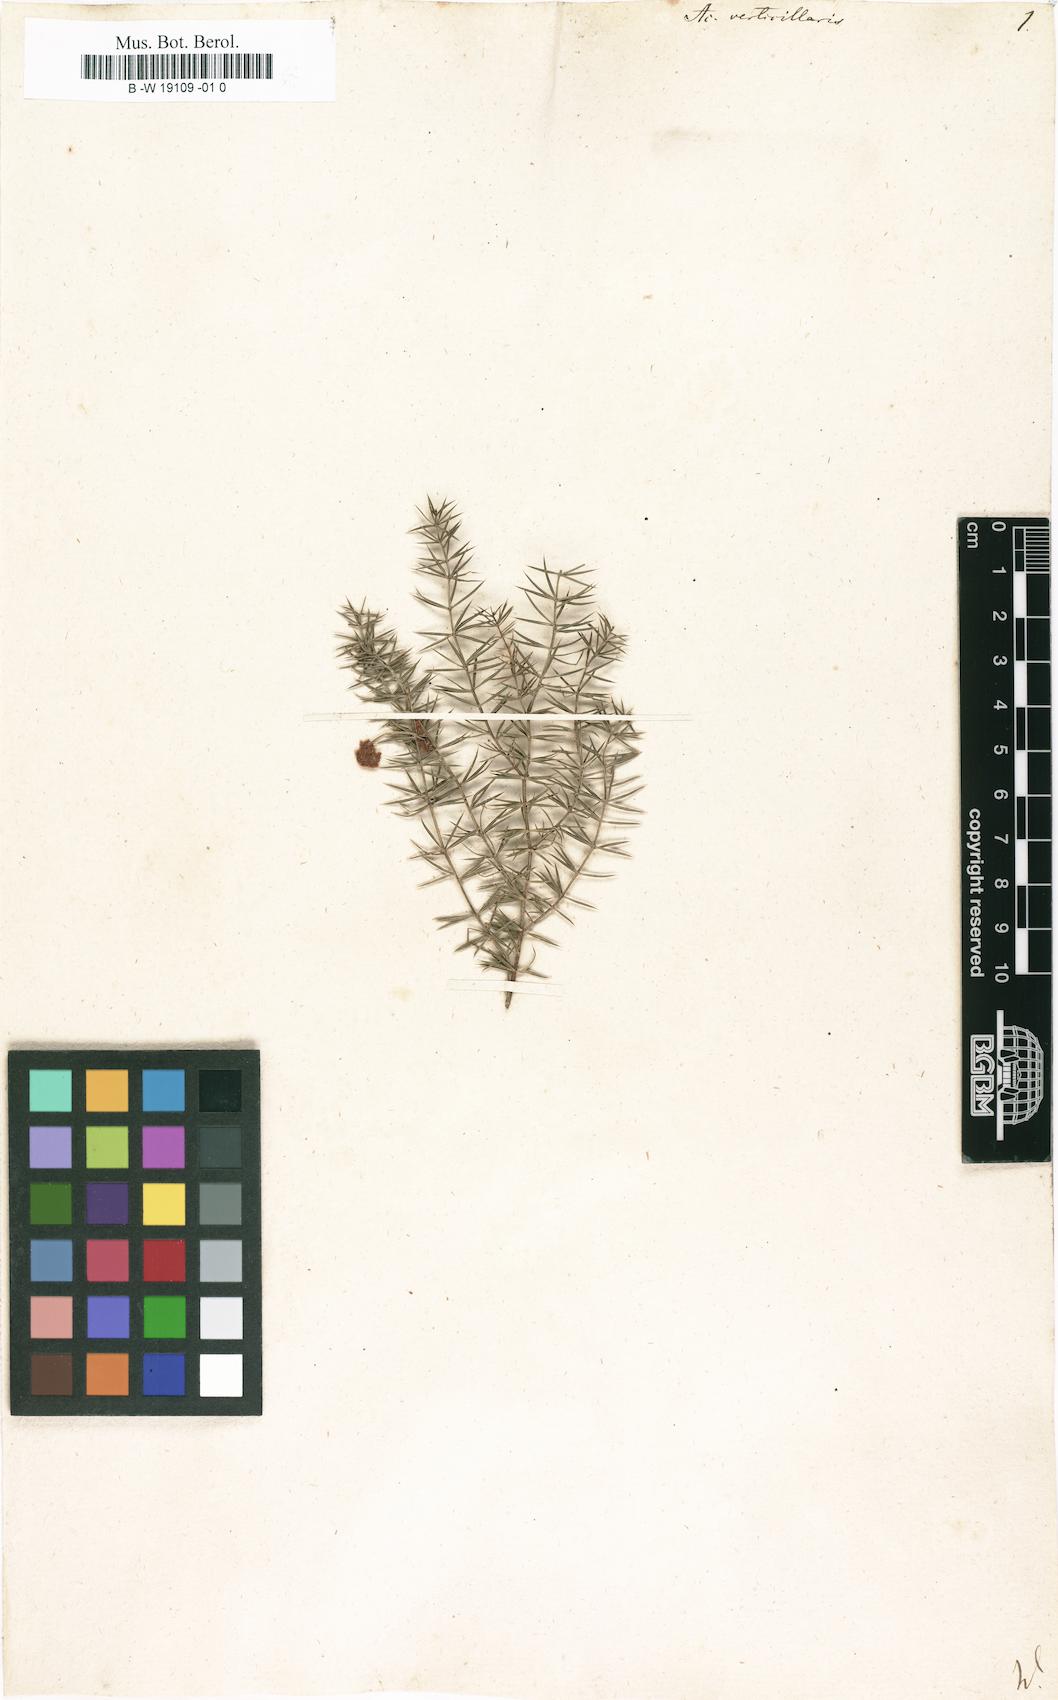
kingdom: Plantae
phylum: Tracheophyta
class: Magnoliopsida
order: Fabales
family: Fabaceae
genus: Acacia
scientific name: Acacia verticillata
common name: Prickly moses
